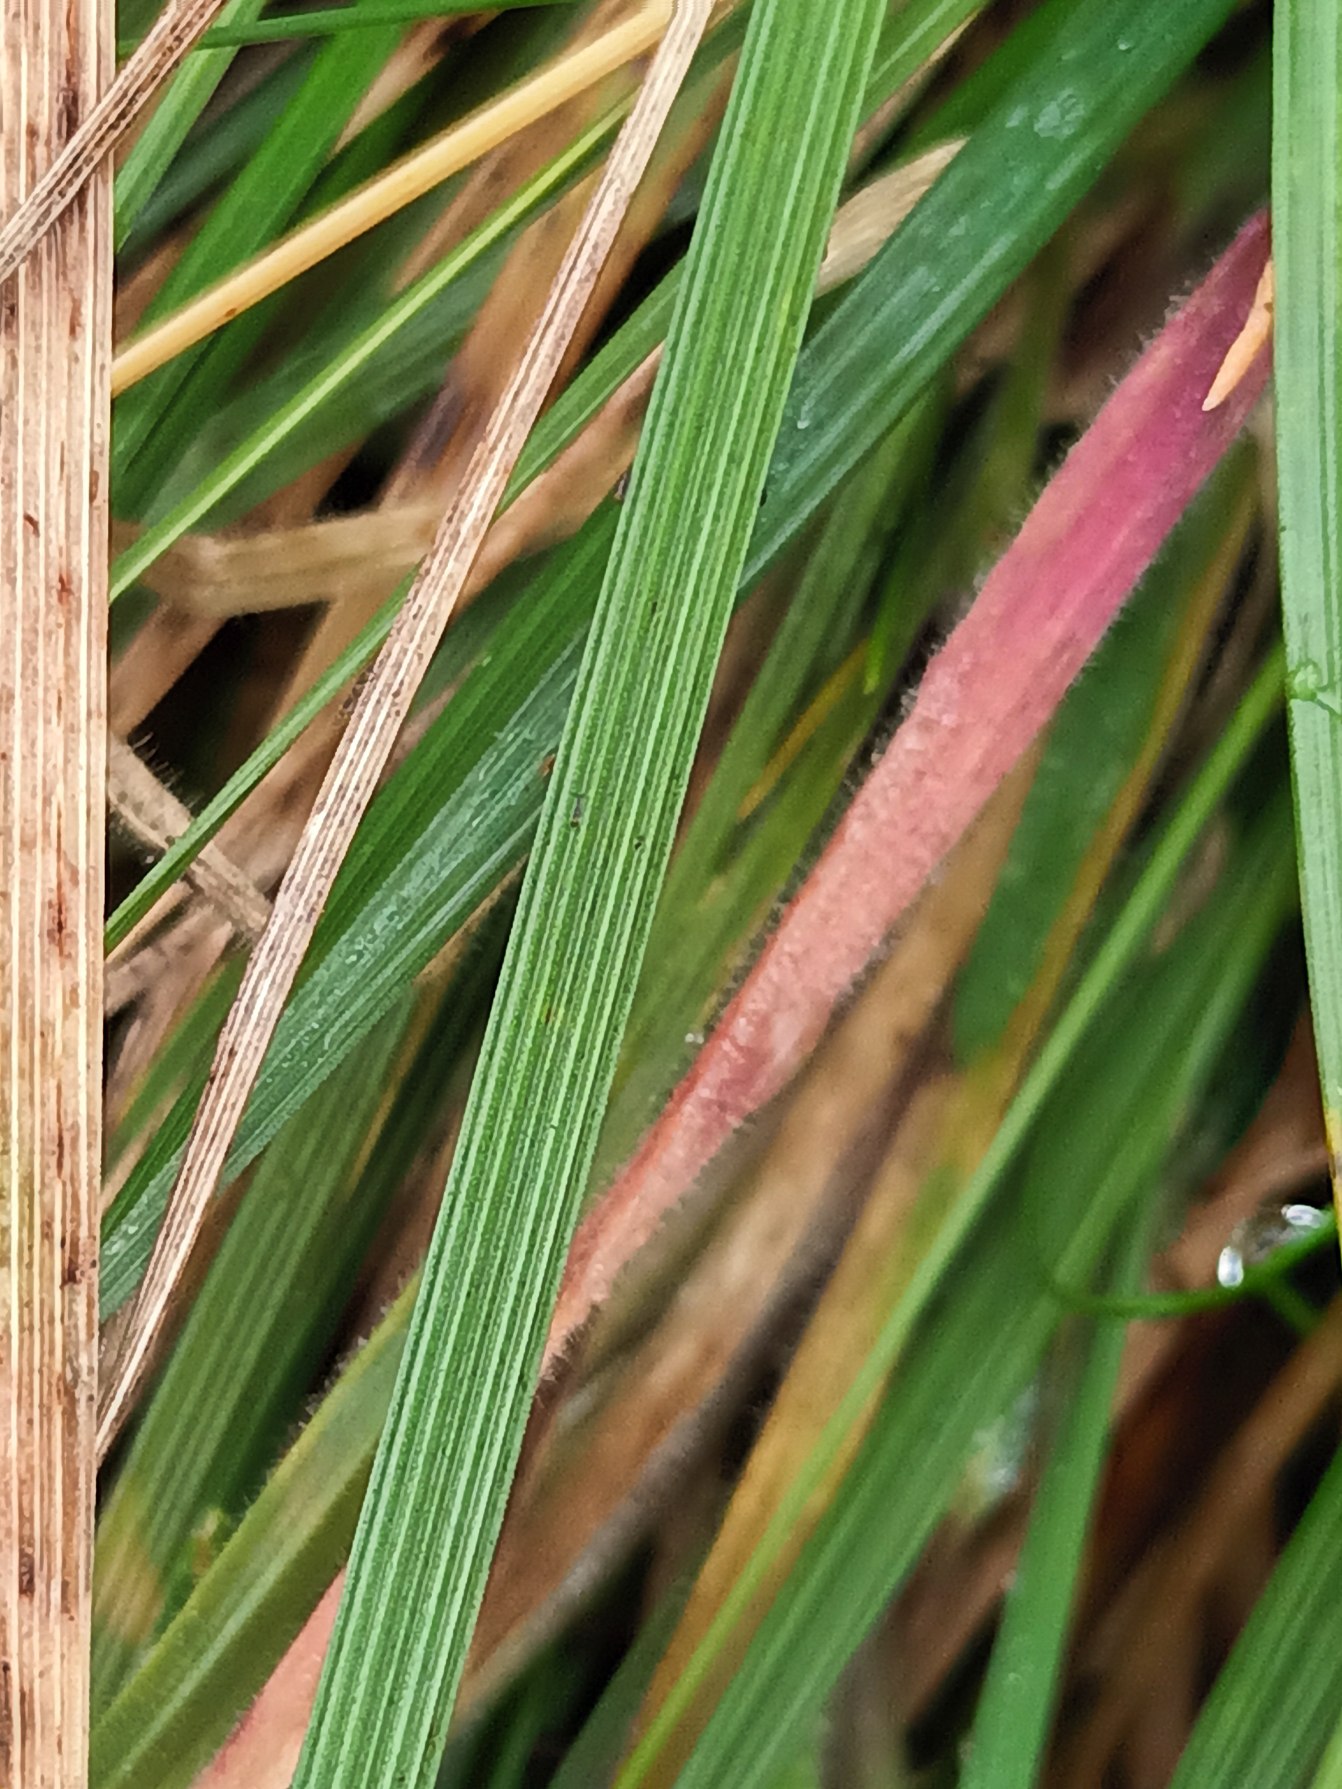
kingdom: Plantae
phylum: Tracheophyta
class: Liliopsida
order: Poales
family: Poaceae
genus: Deschampsia
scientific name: Deschampsia cespitosa
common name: Mose-bunke
